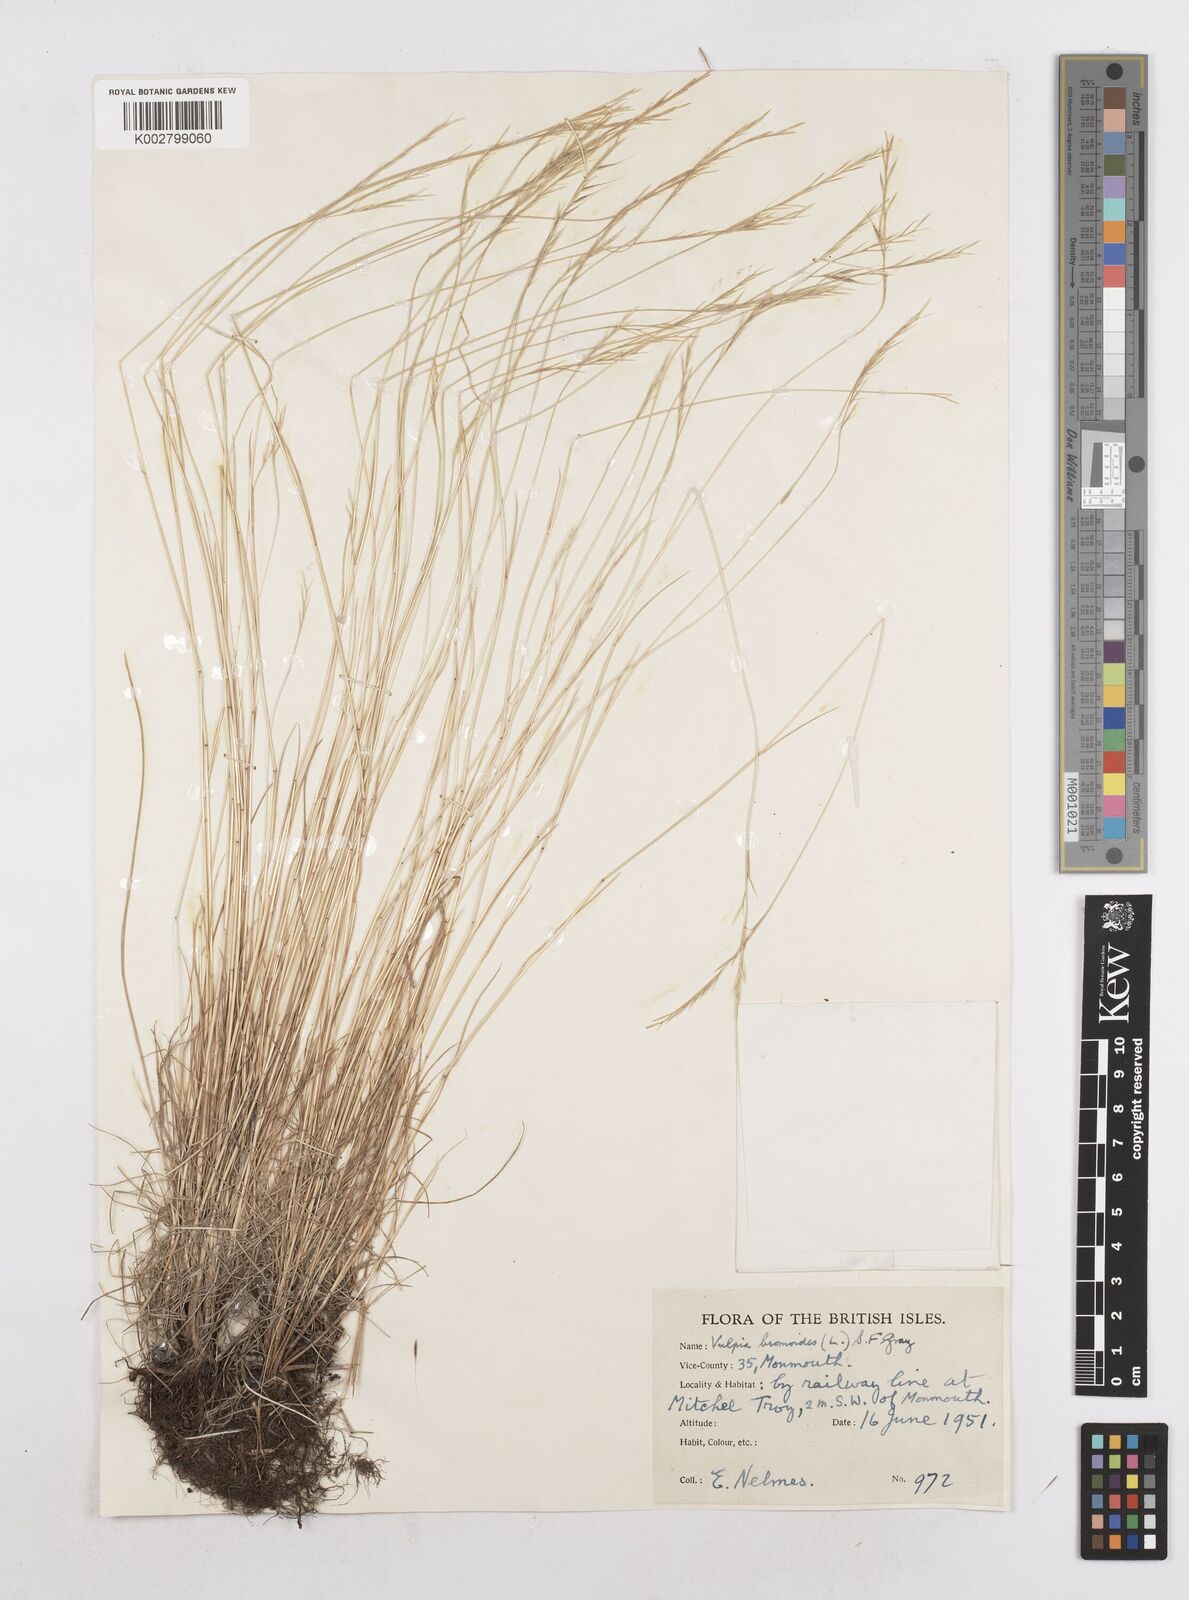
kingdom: Plantae
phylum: Tracheophyta
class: Liliopsida
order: Poales
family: Poaceae
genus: Festuca
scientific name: Festuca bromoides
